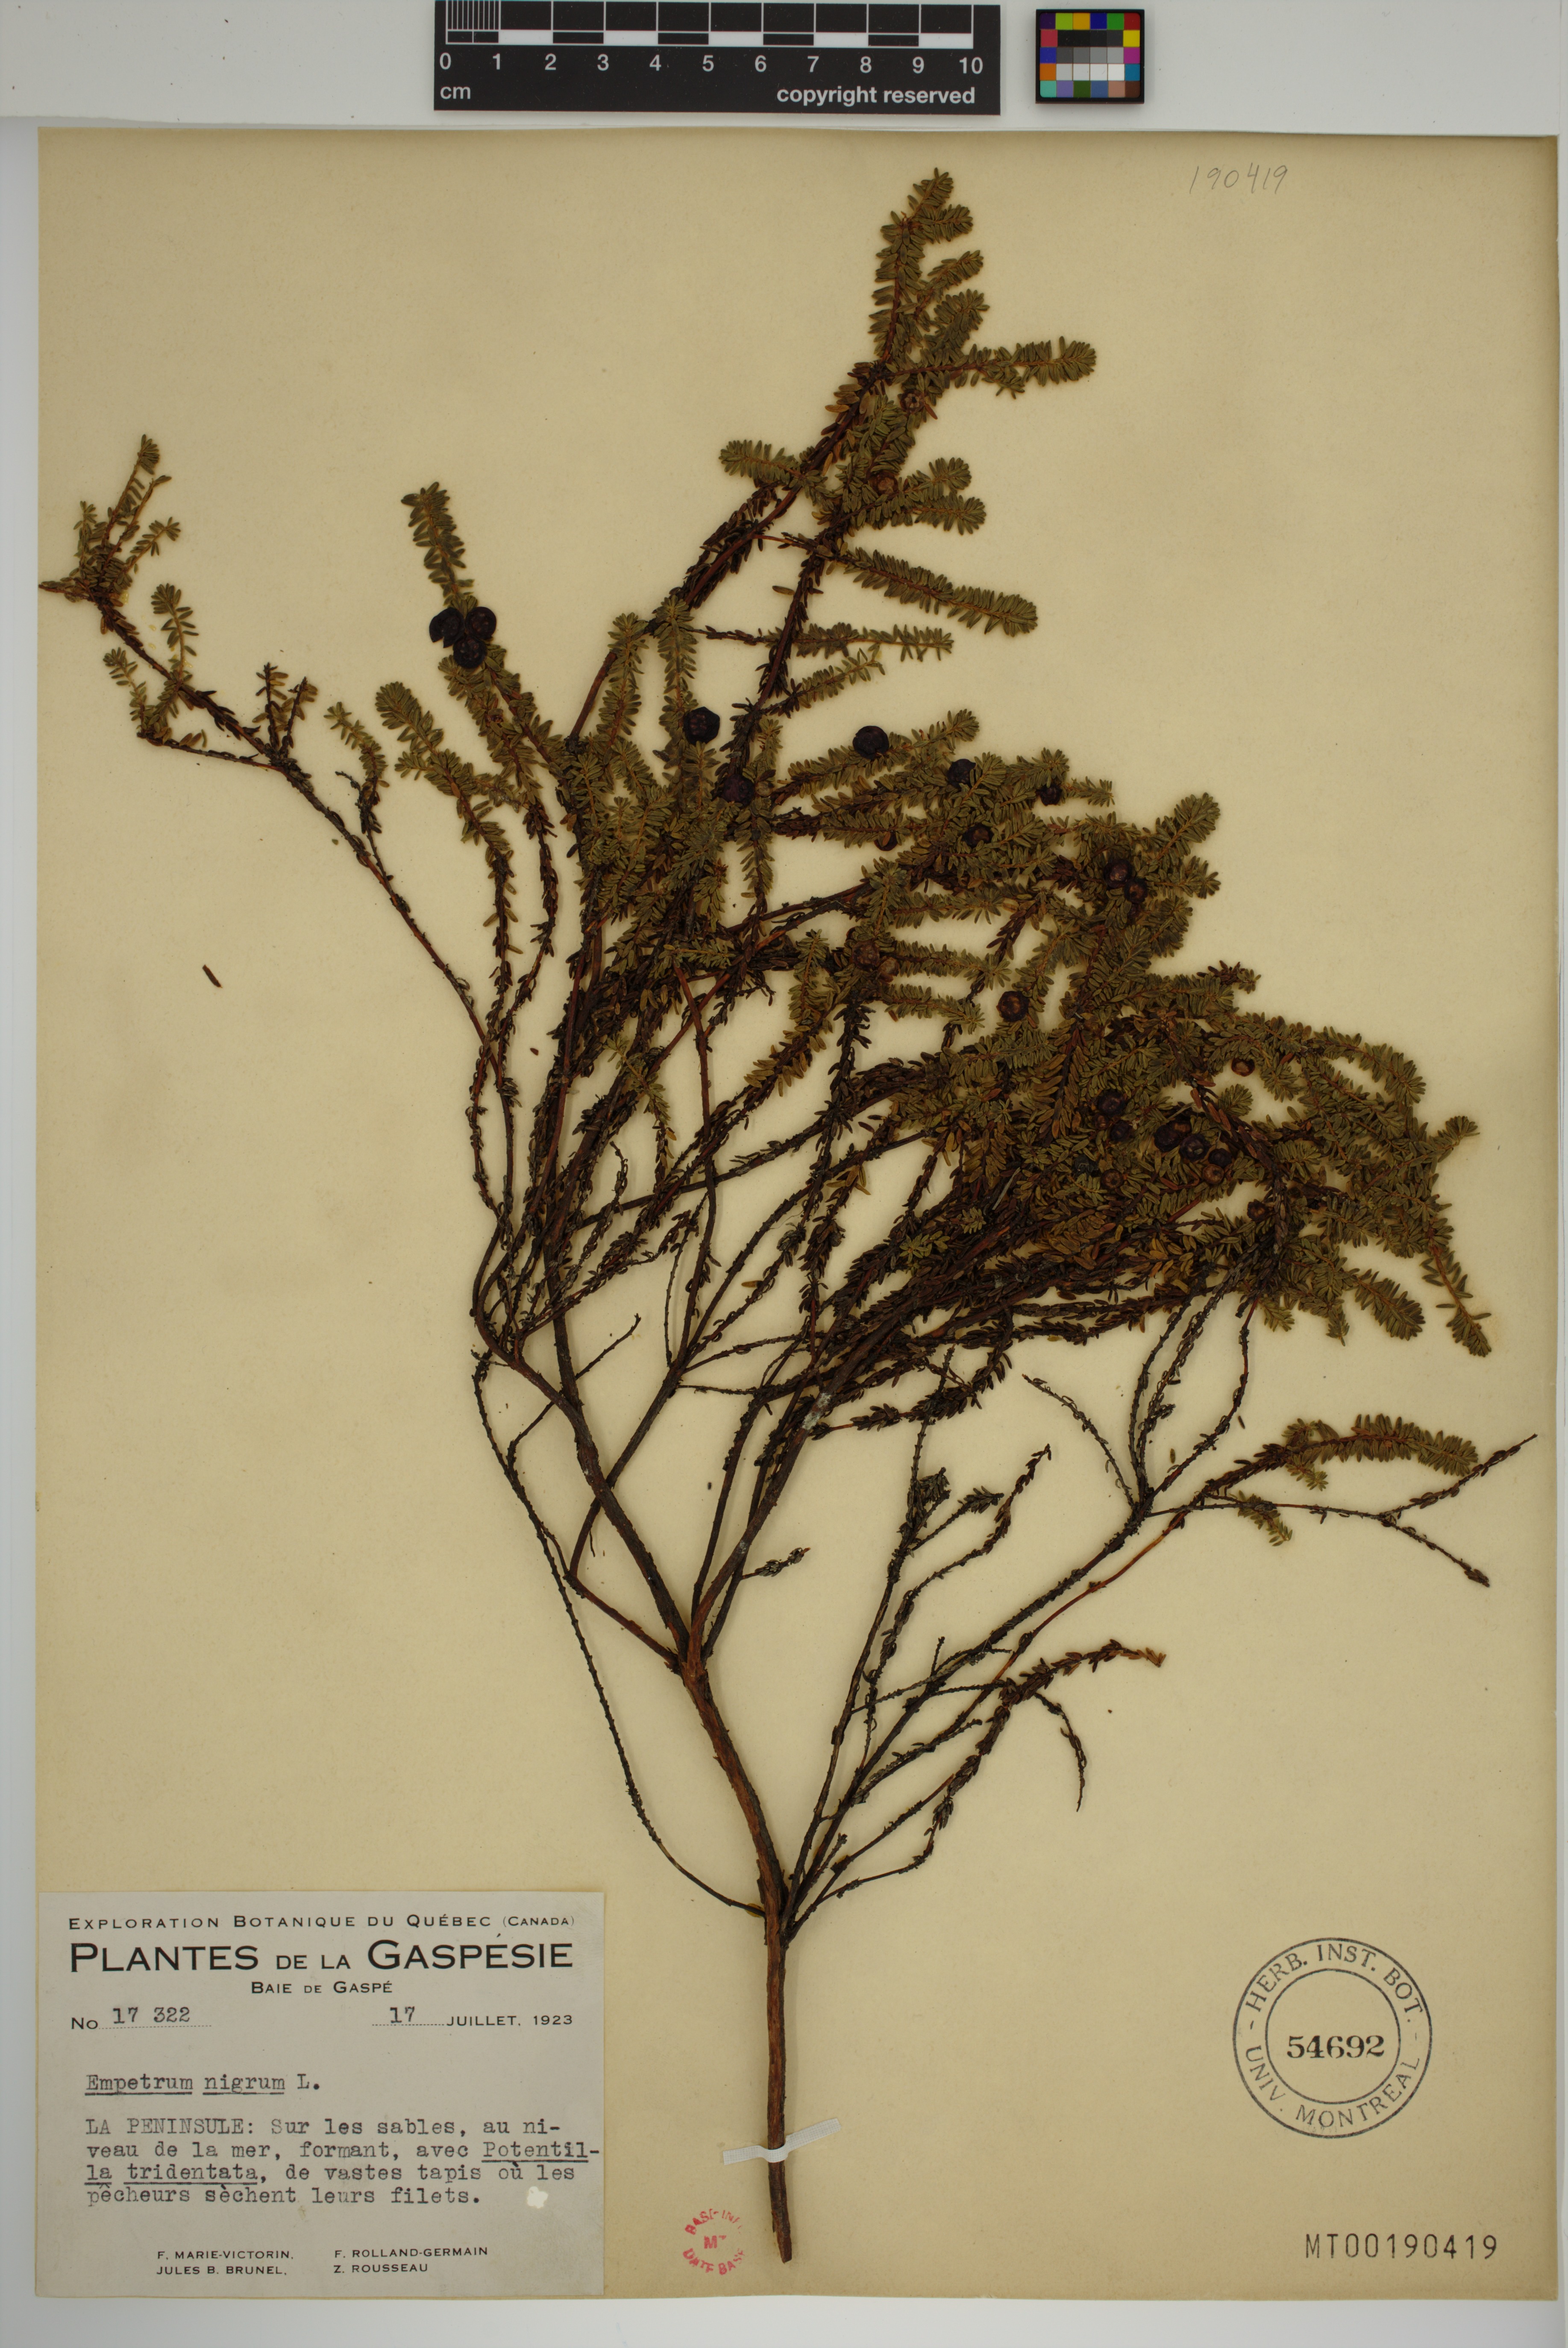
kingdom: Plantae
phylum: Tracheophyta
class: Magnoliopsida
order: Ericales
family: Ericaceae
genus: Empetrum
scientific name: Empetrum nigrum
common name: Black crowberry
